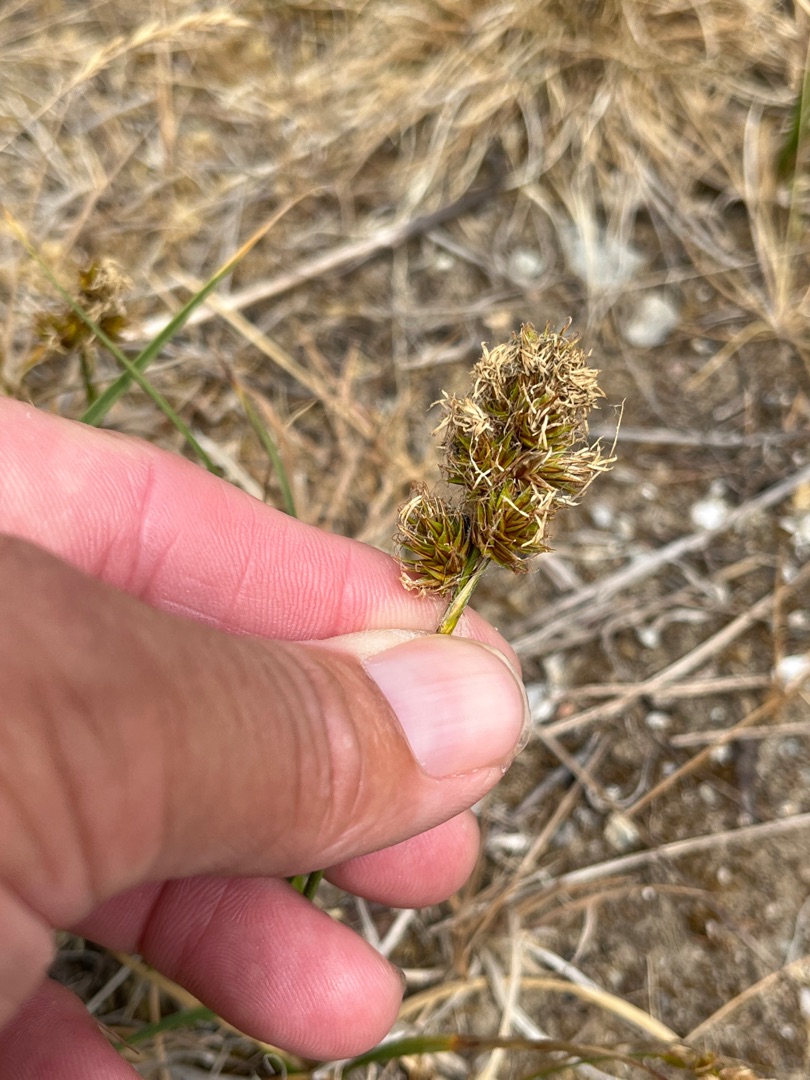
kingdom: Plantae
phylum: Tracheophyta
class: Liliopsida
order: Poales
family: Cyperaceae
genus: Carex
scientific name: Carex arenaria
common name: Sand-star
